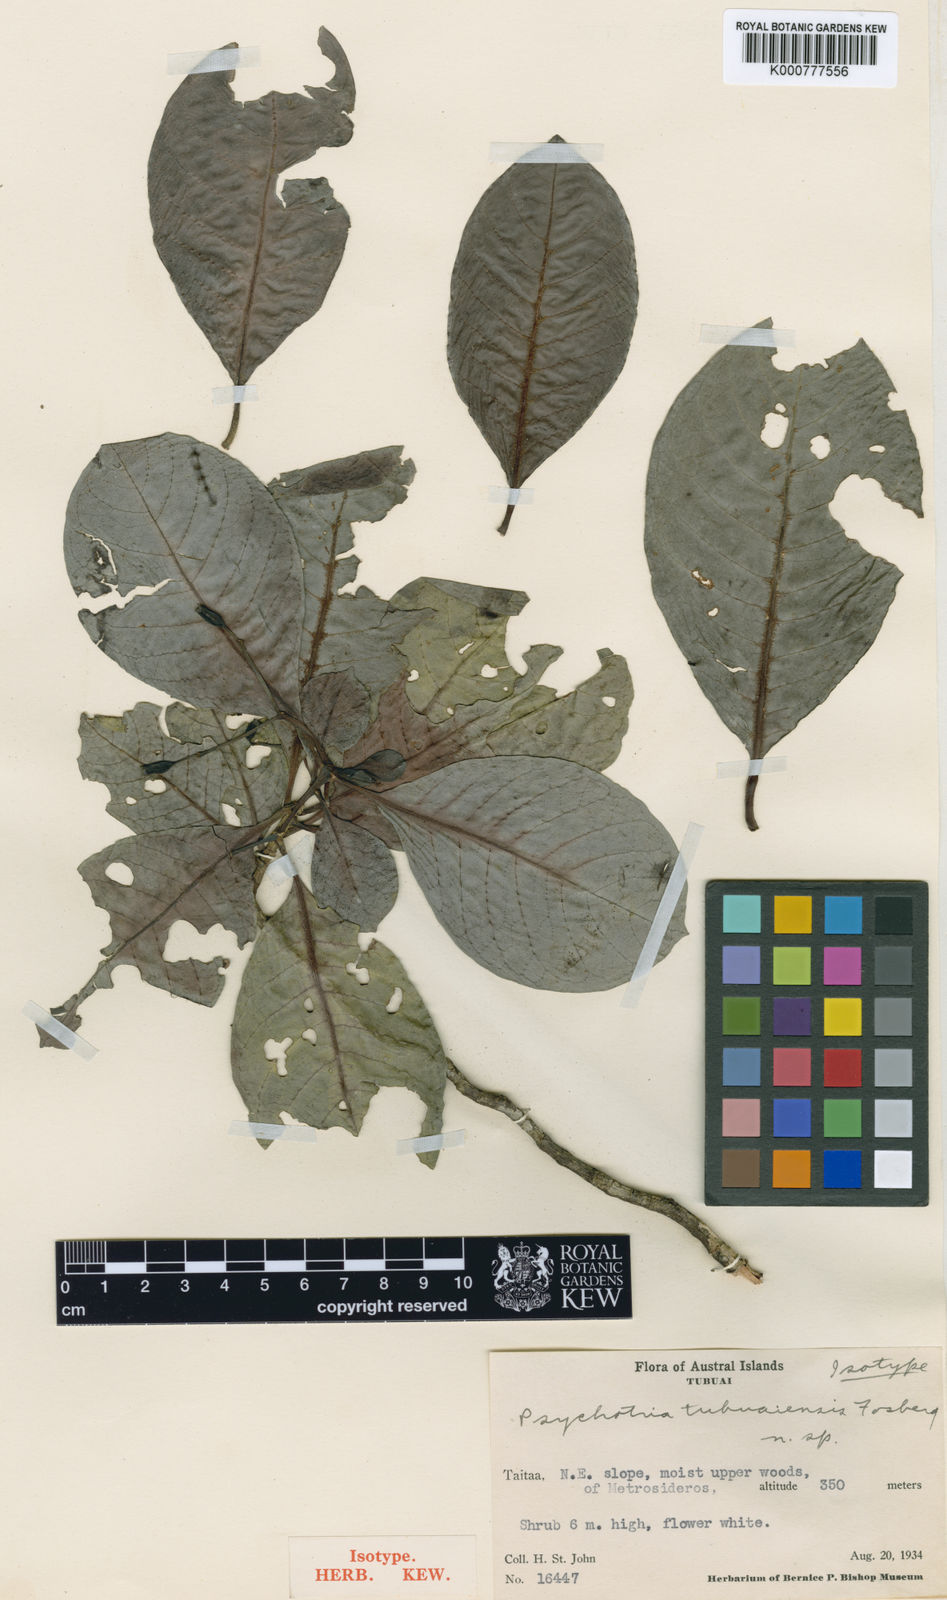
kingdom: Plantae
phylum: Tracheophyta
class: Magnoliopsida
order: Gentianales
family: Rubiaceae
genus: Psychotria
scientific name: Psychotria tubuaiensis
